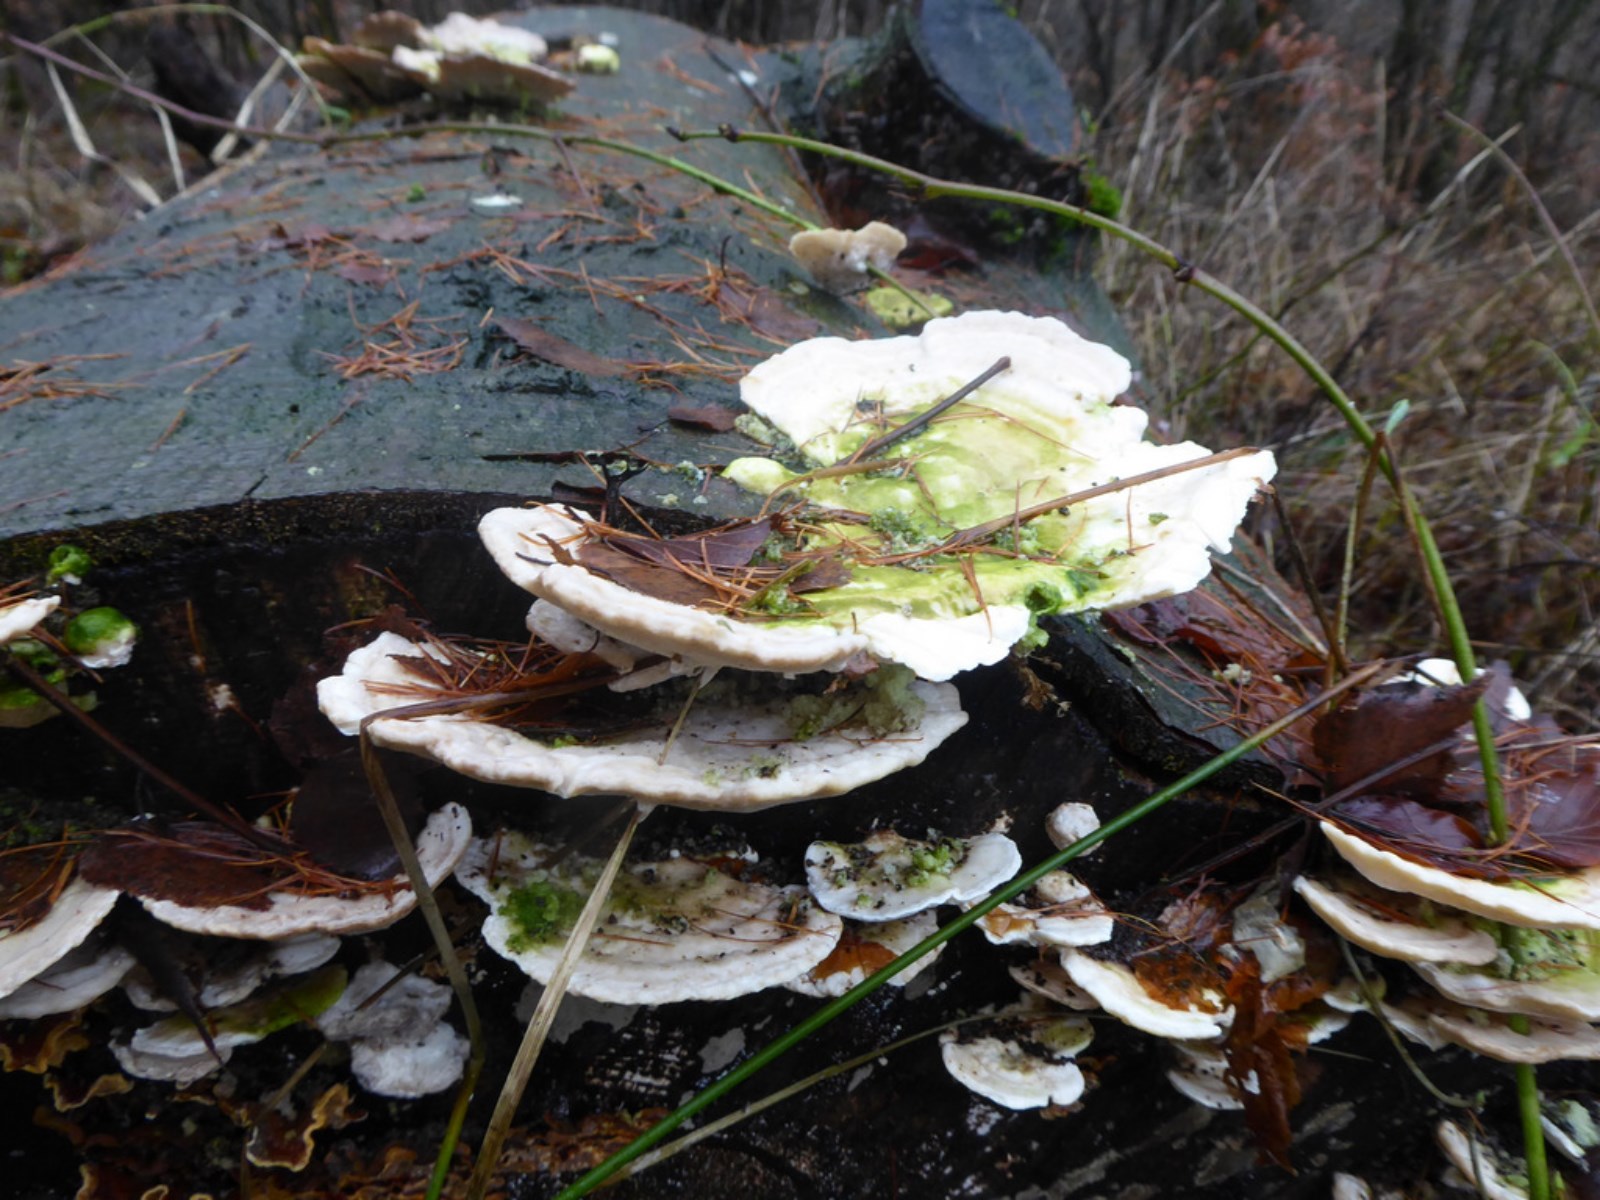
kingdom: Fungi
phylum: Basidiomycota
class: Agaricomycetes
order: Polyporales
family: Polyporaceae
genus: Trametes
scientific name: Trametes gibbosa
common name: puklet læderporesvamp
